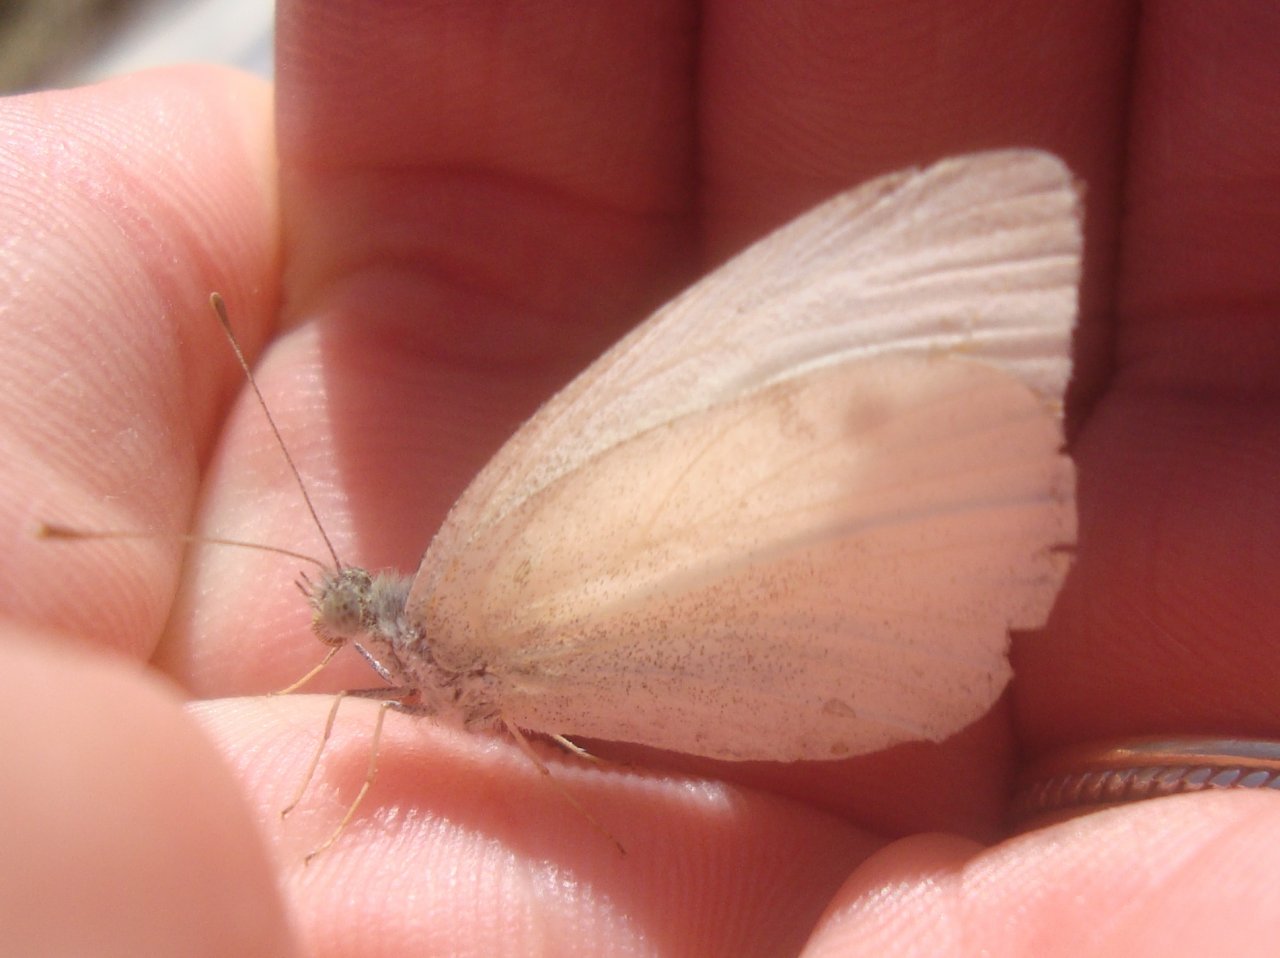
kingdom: Animalia
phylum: Arthropoda
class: Insecta
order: Lepidoptera
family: Pieridae
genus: Pieris
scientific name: Pieris rapae
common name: Cabbage White
